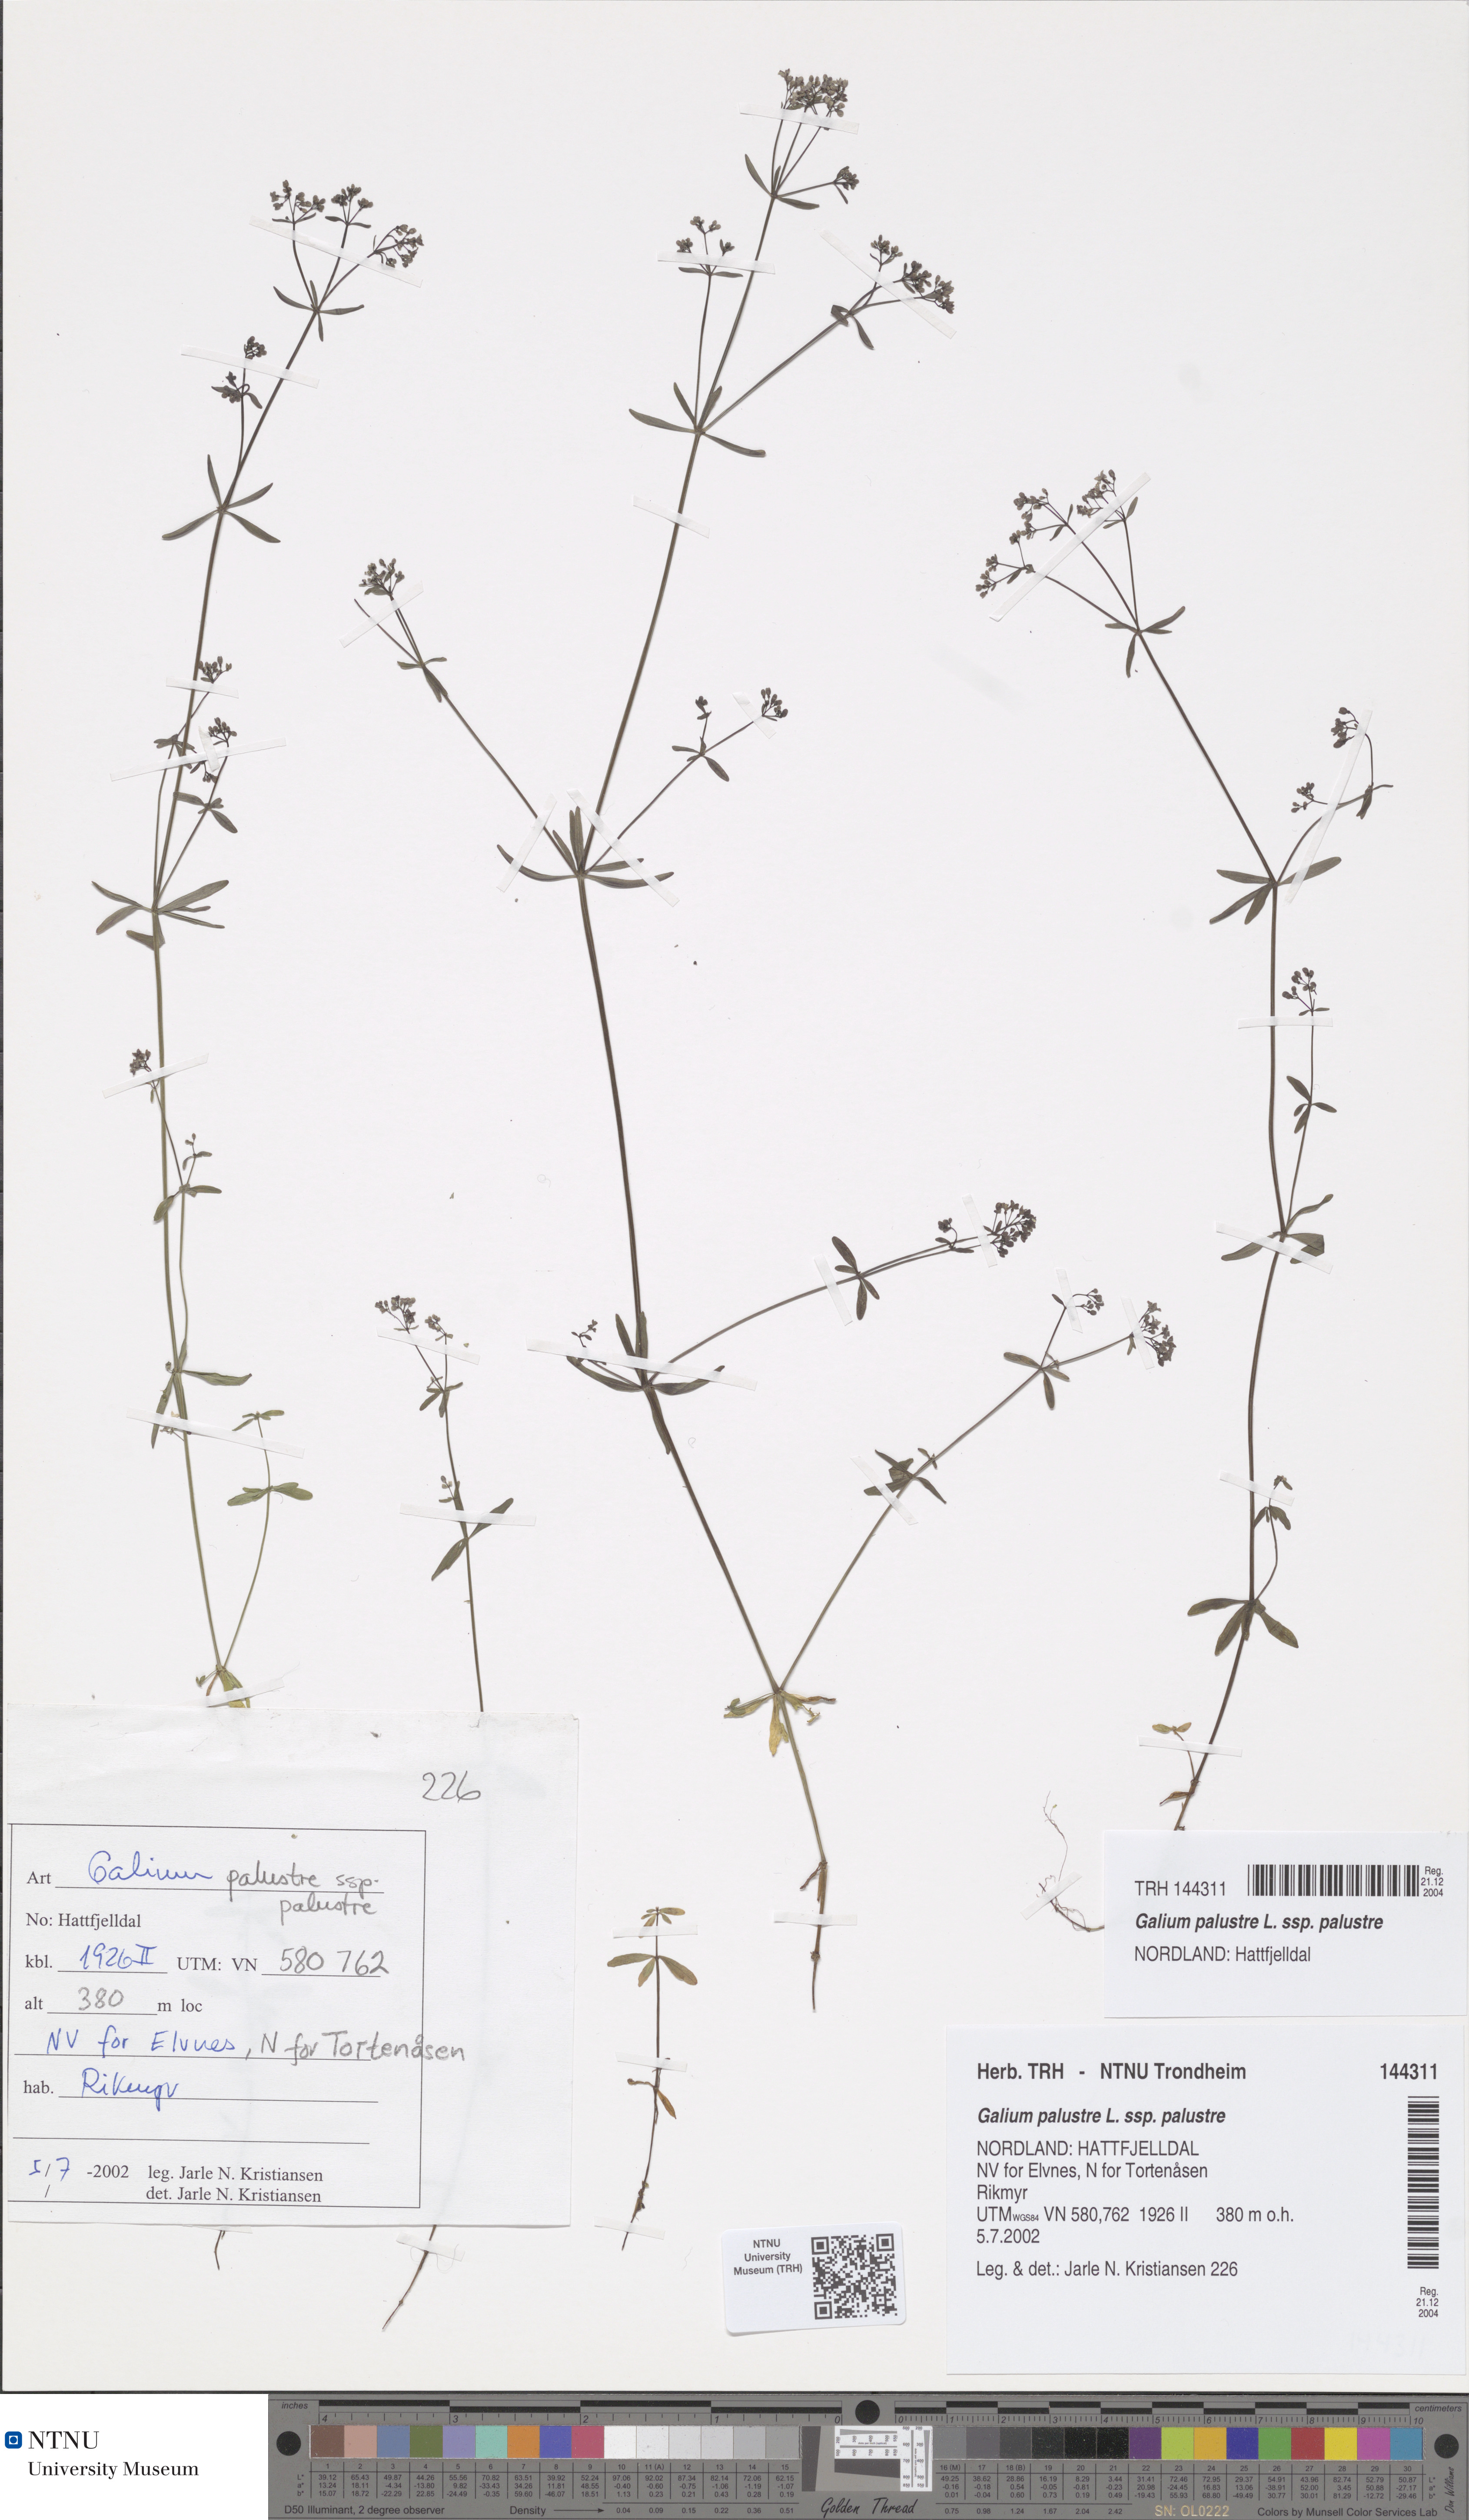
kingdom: Plantae
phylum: Tracheophyta
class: Magnoliopsida
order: Gentianales
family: Rubiaceae
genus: Galium
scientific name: Galium palustre
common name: Common marsh-bedstraw
